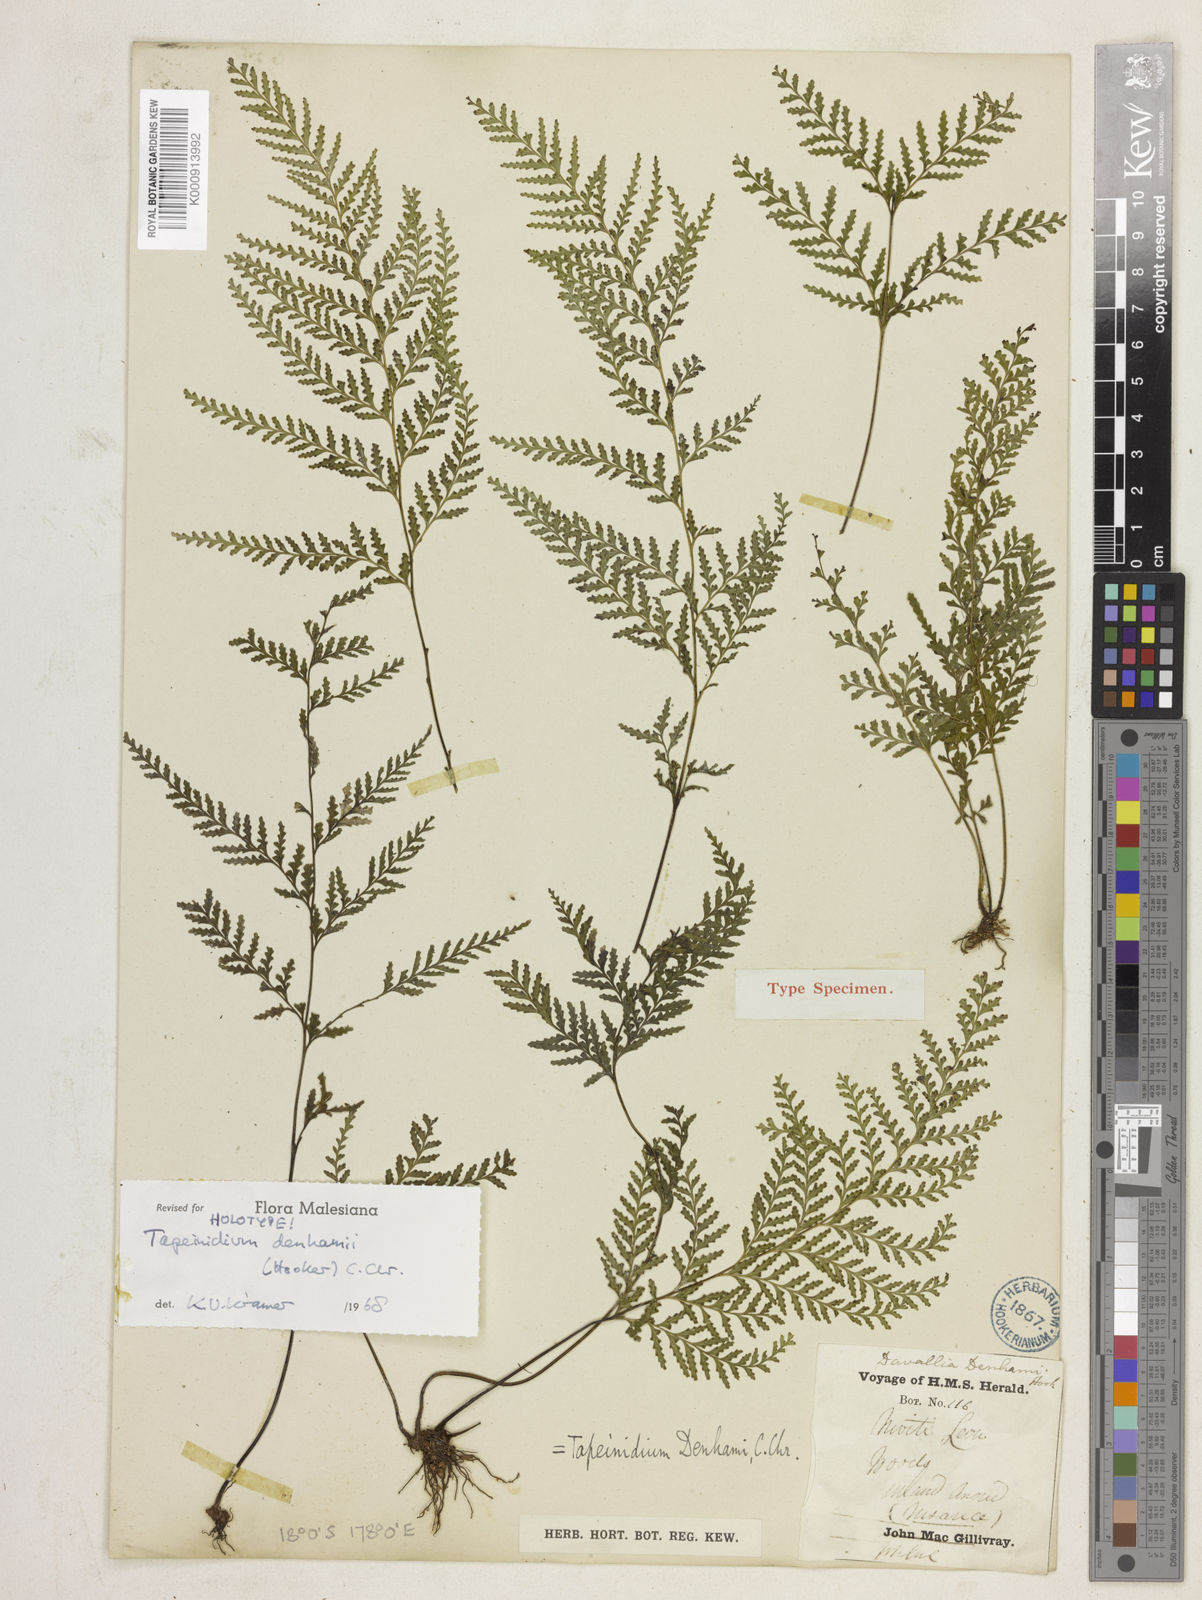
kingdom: Plantae
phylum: Tracheophyta
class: Polypodiopsida
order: Polypodiales
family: Lindsaeaceae
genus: Tapeinidium
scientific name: Tapeinidium denhamii
